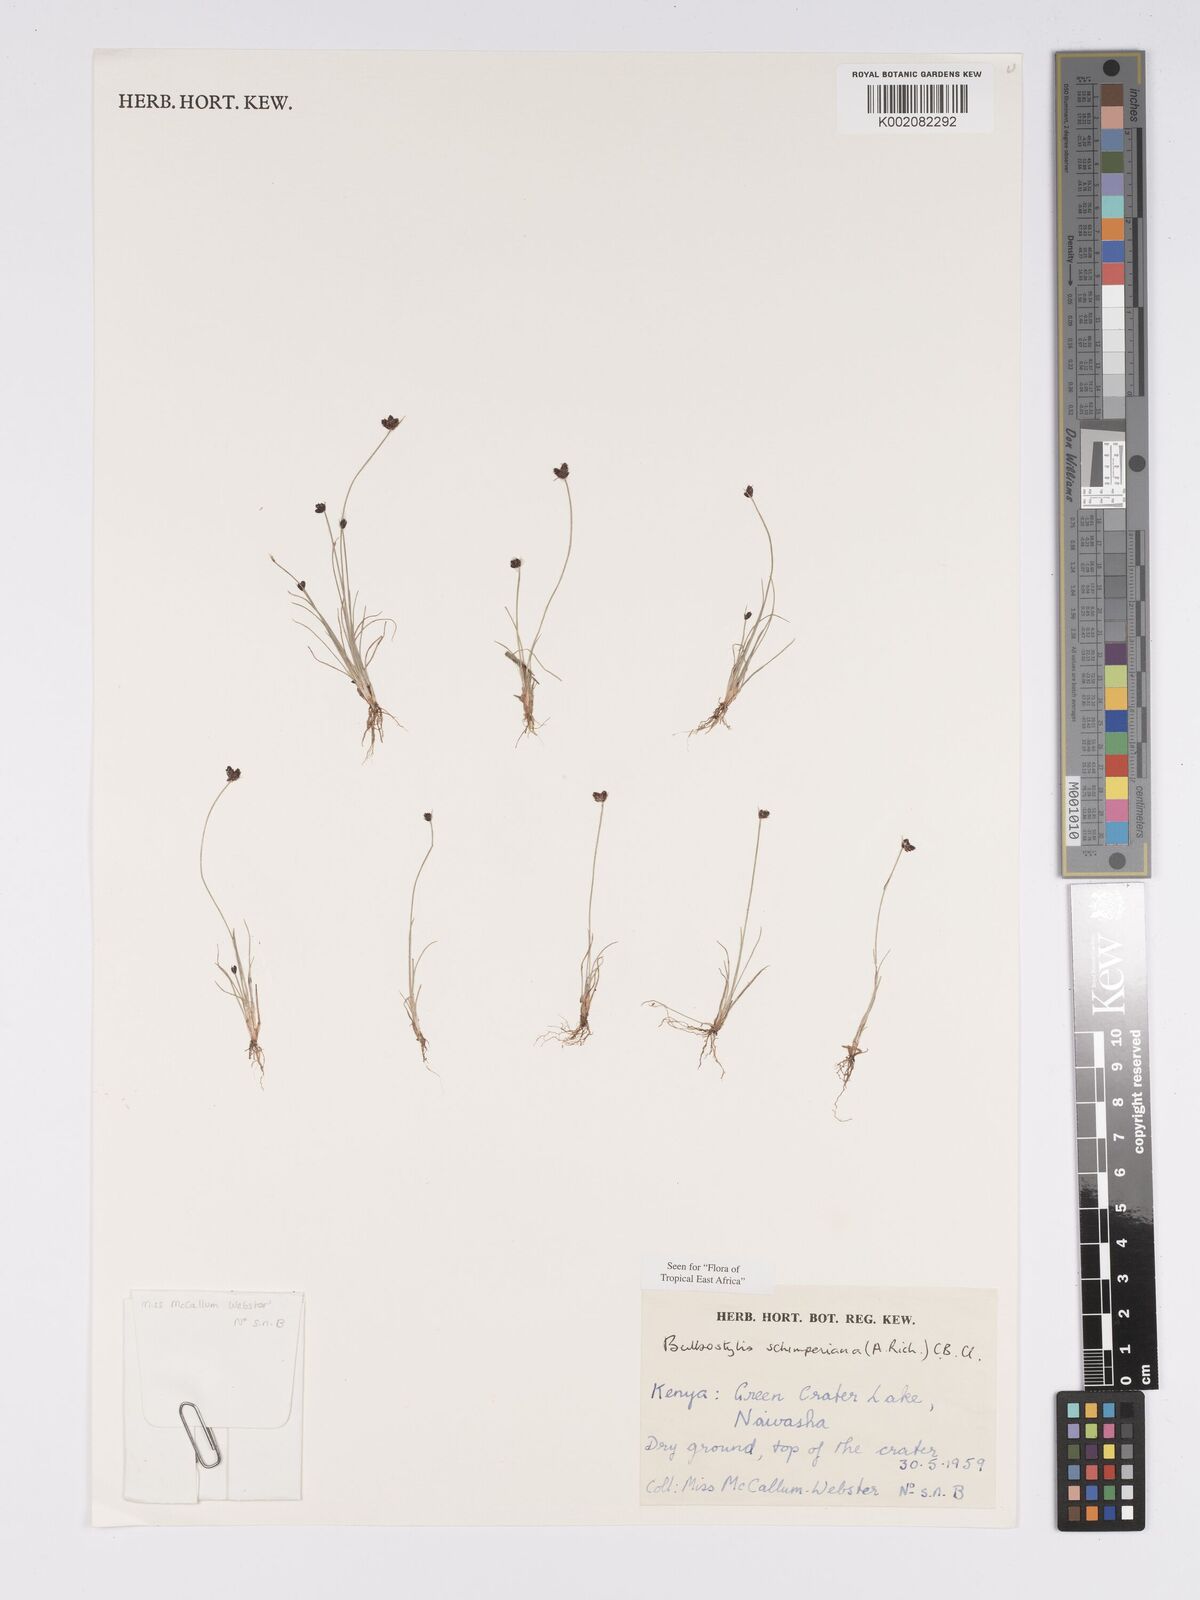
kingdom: Plantae
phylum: Tracheophyta
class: Liliopsida
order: Poales
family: Cyperaceae
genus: Bulbostylis
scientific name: Bulbostylis schimperiana
